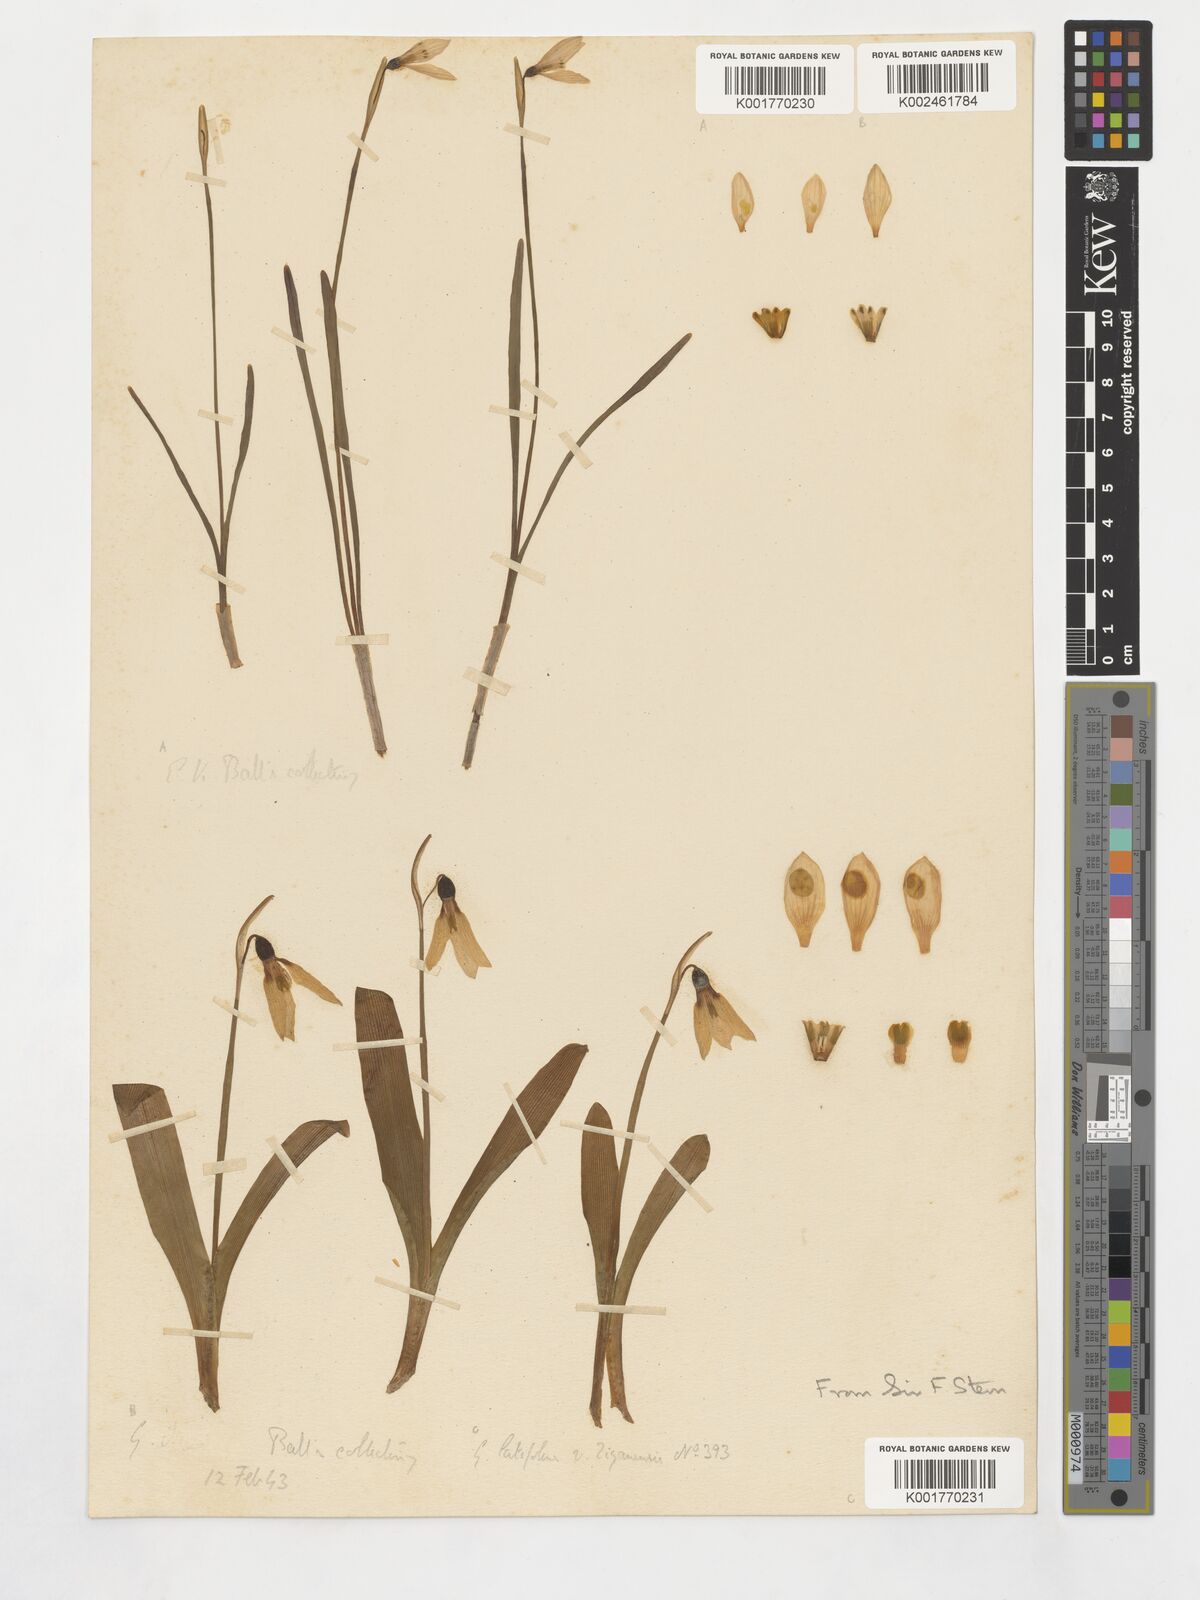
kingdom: Plantae
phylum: Tracheophyta
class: Liliopsida
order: Asparagales
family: Amaryllidaceae
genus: Galanthus
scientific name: Galanthus platyphyllus
